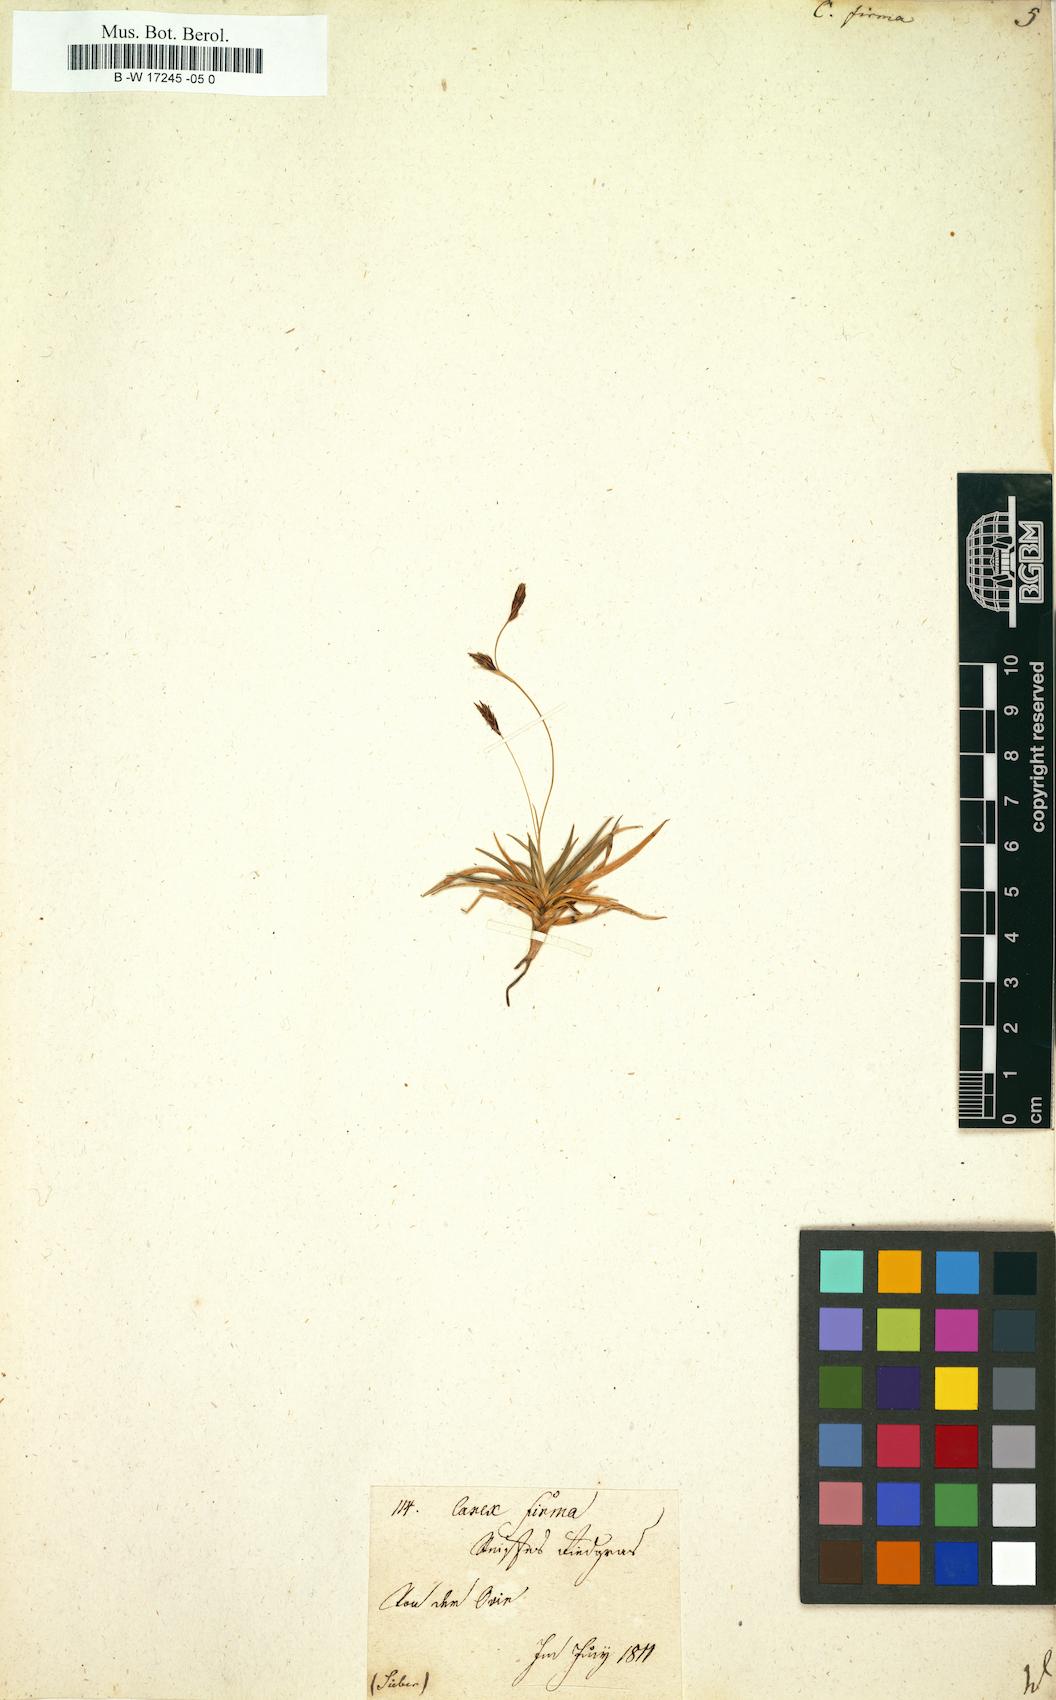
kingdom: Plantae
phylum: Tracheophyta
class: Liliopsida
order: Poales
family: Cyperaceae
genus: Carex
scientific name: Carex firma
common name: Dwarf pillow sedge
